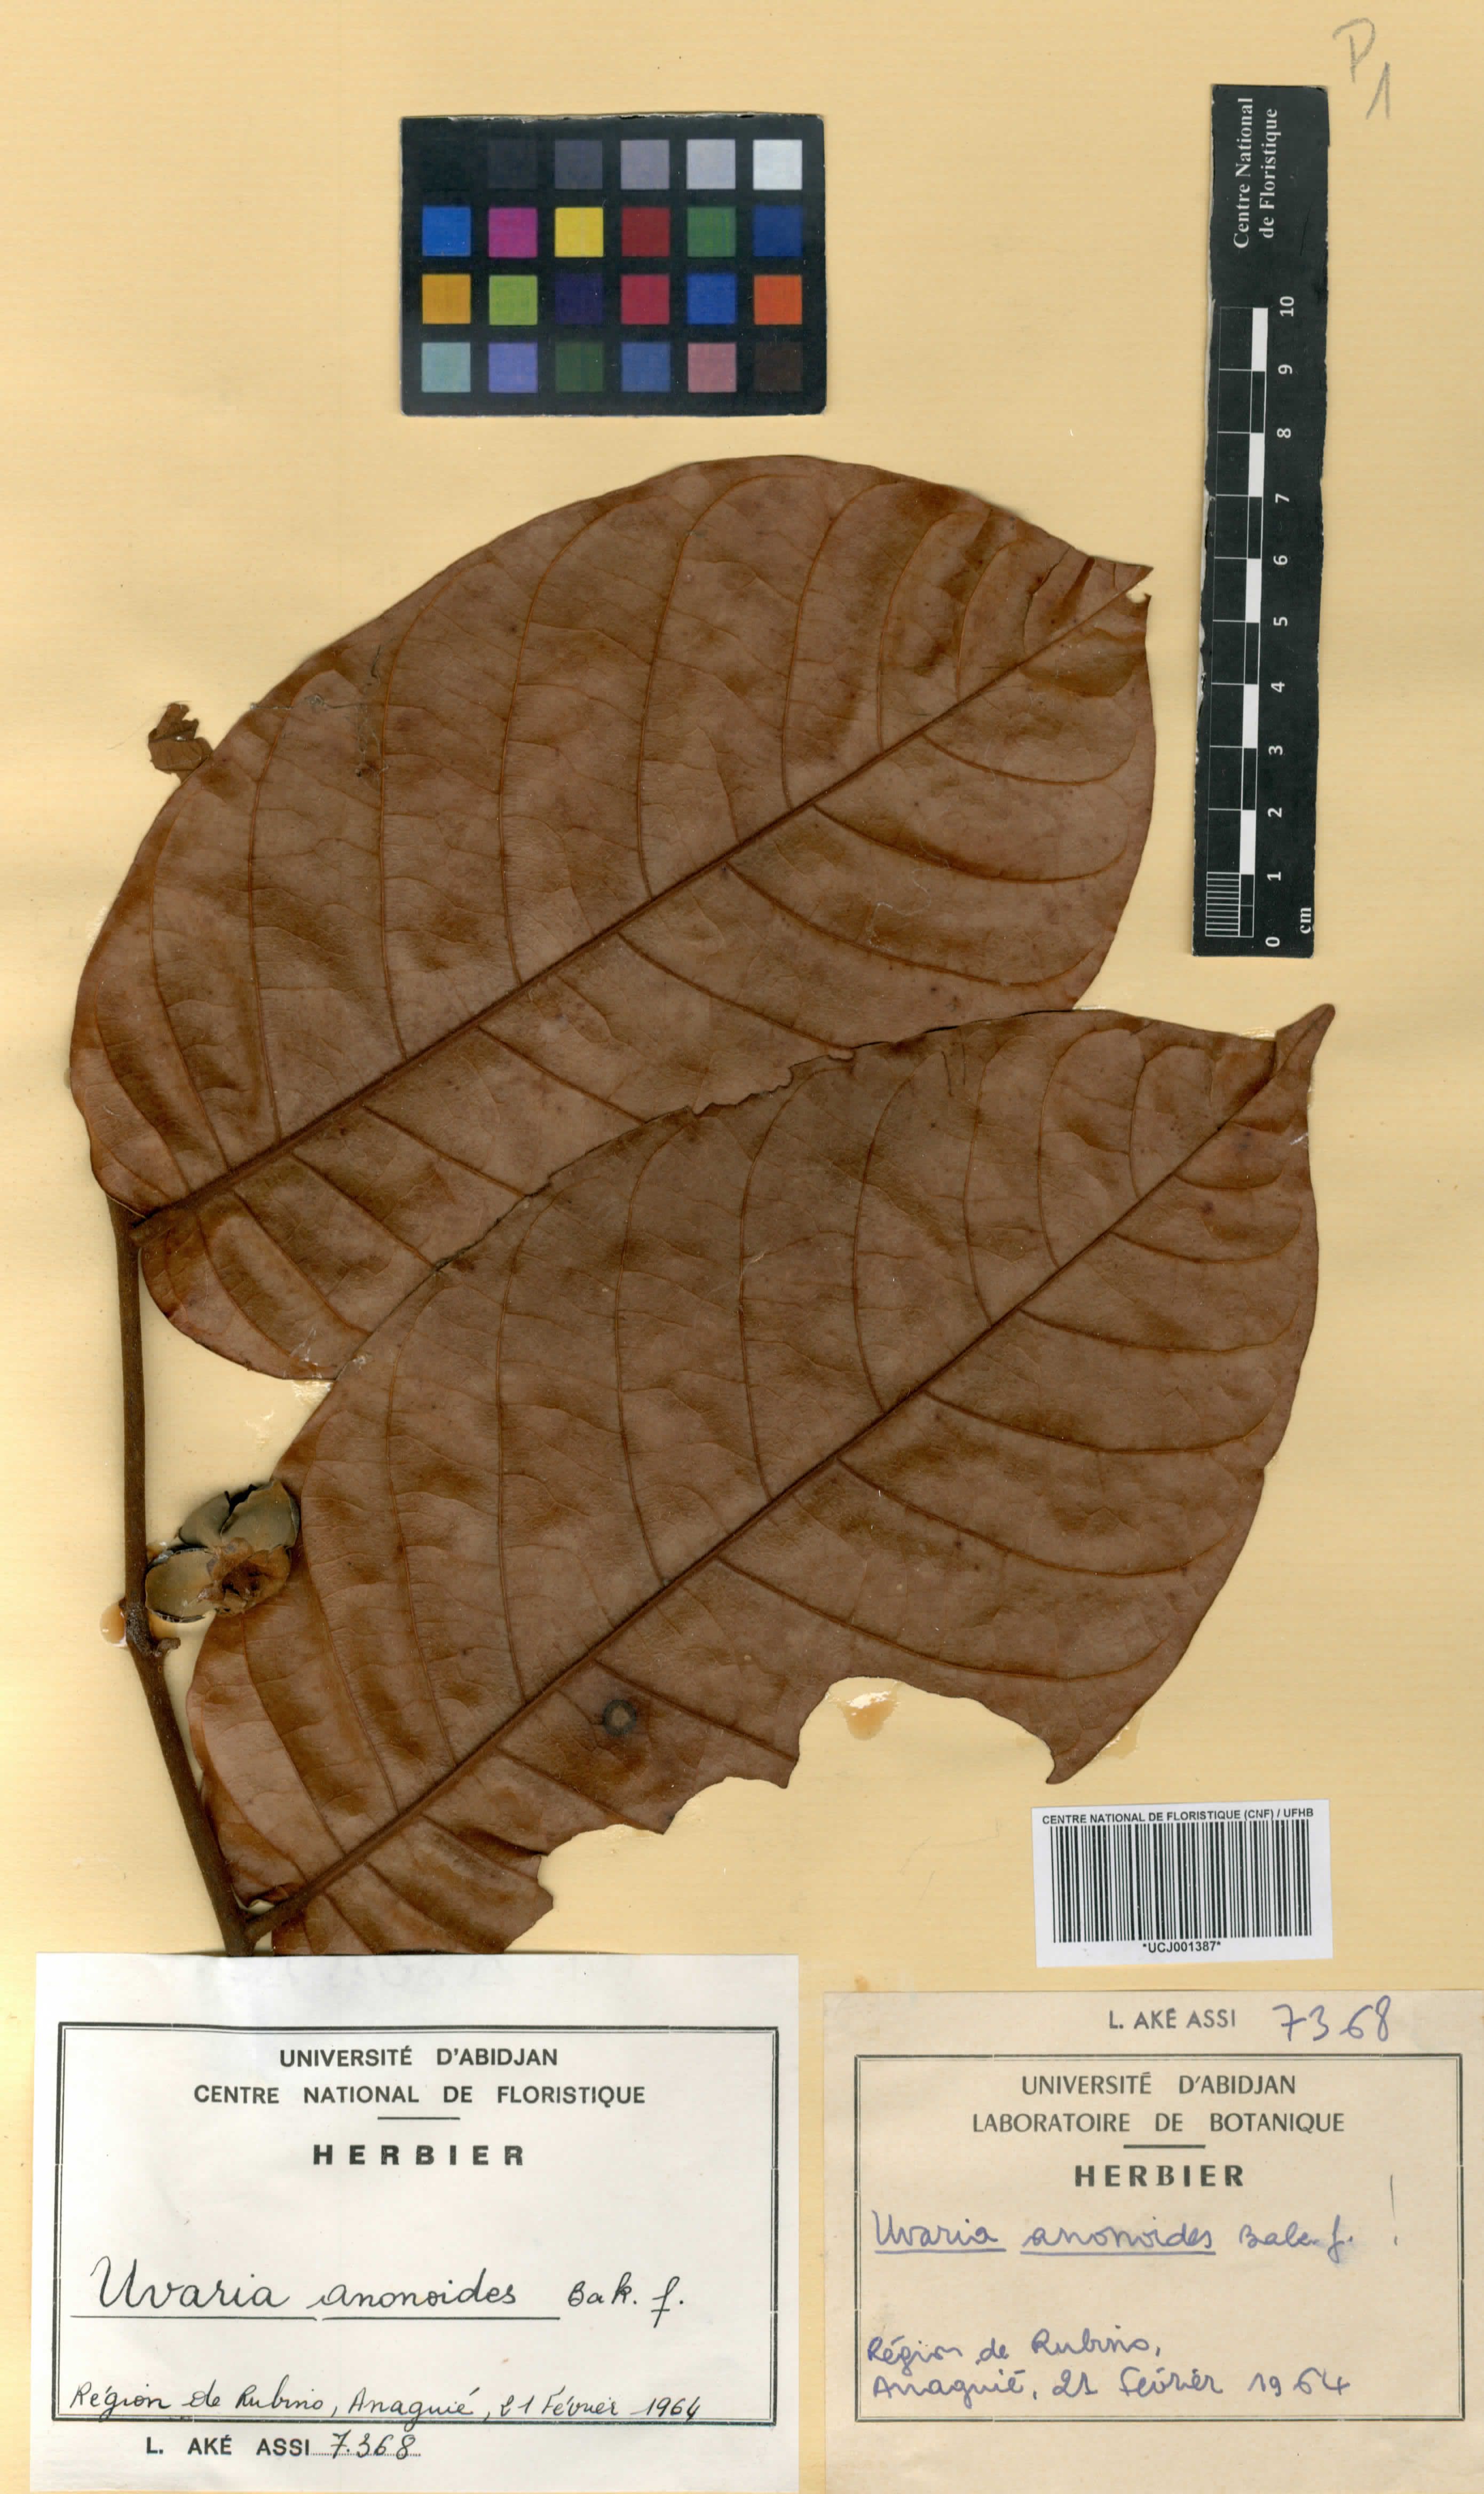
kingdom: Plantae
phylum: Tracheophyta
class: Magnoliopsida
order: Magnoliales
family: Annonaceae
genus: Uvaria
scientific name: Uvaria anonoides
